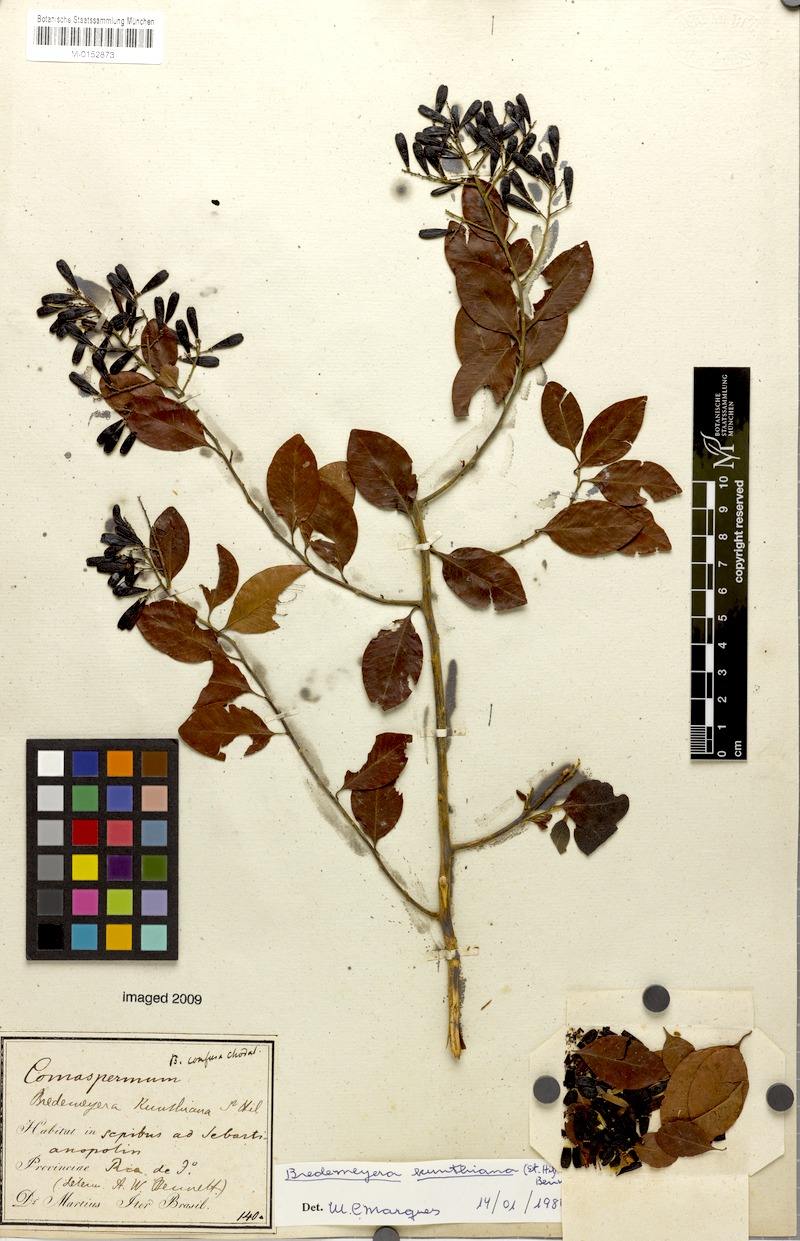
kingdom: Plantae
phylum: Tracheophyta
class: Magnoliopsida
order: Fabales
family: Polygalaceae
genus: Bredemeyera
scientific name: Bredemeyera hebeclada
